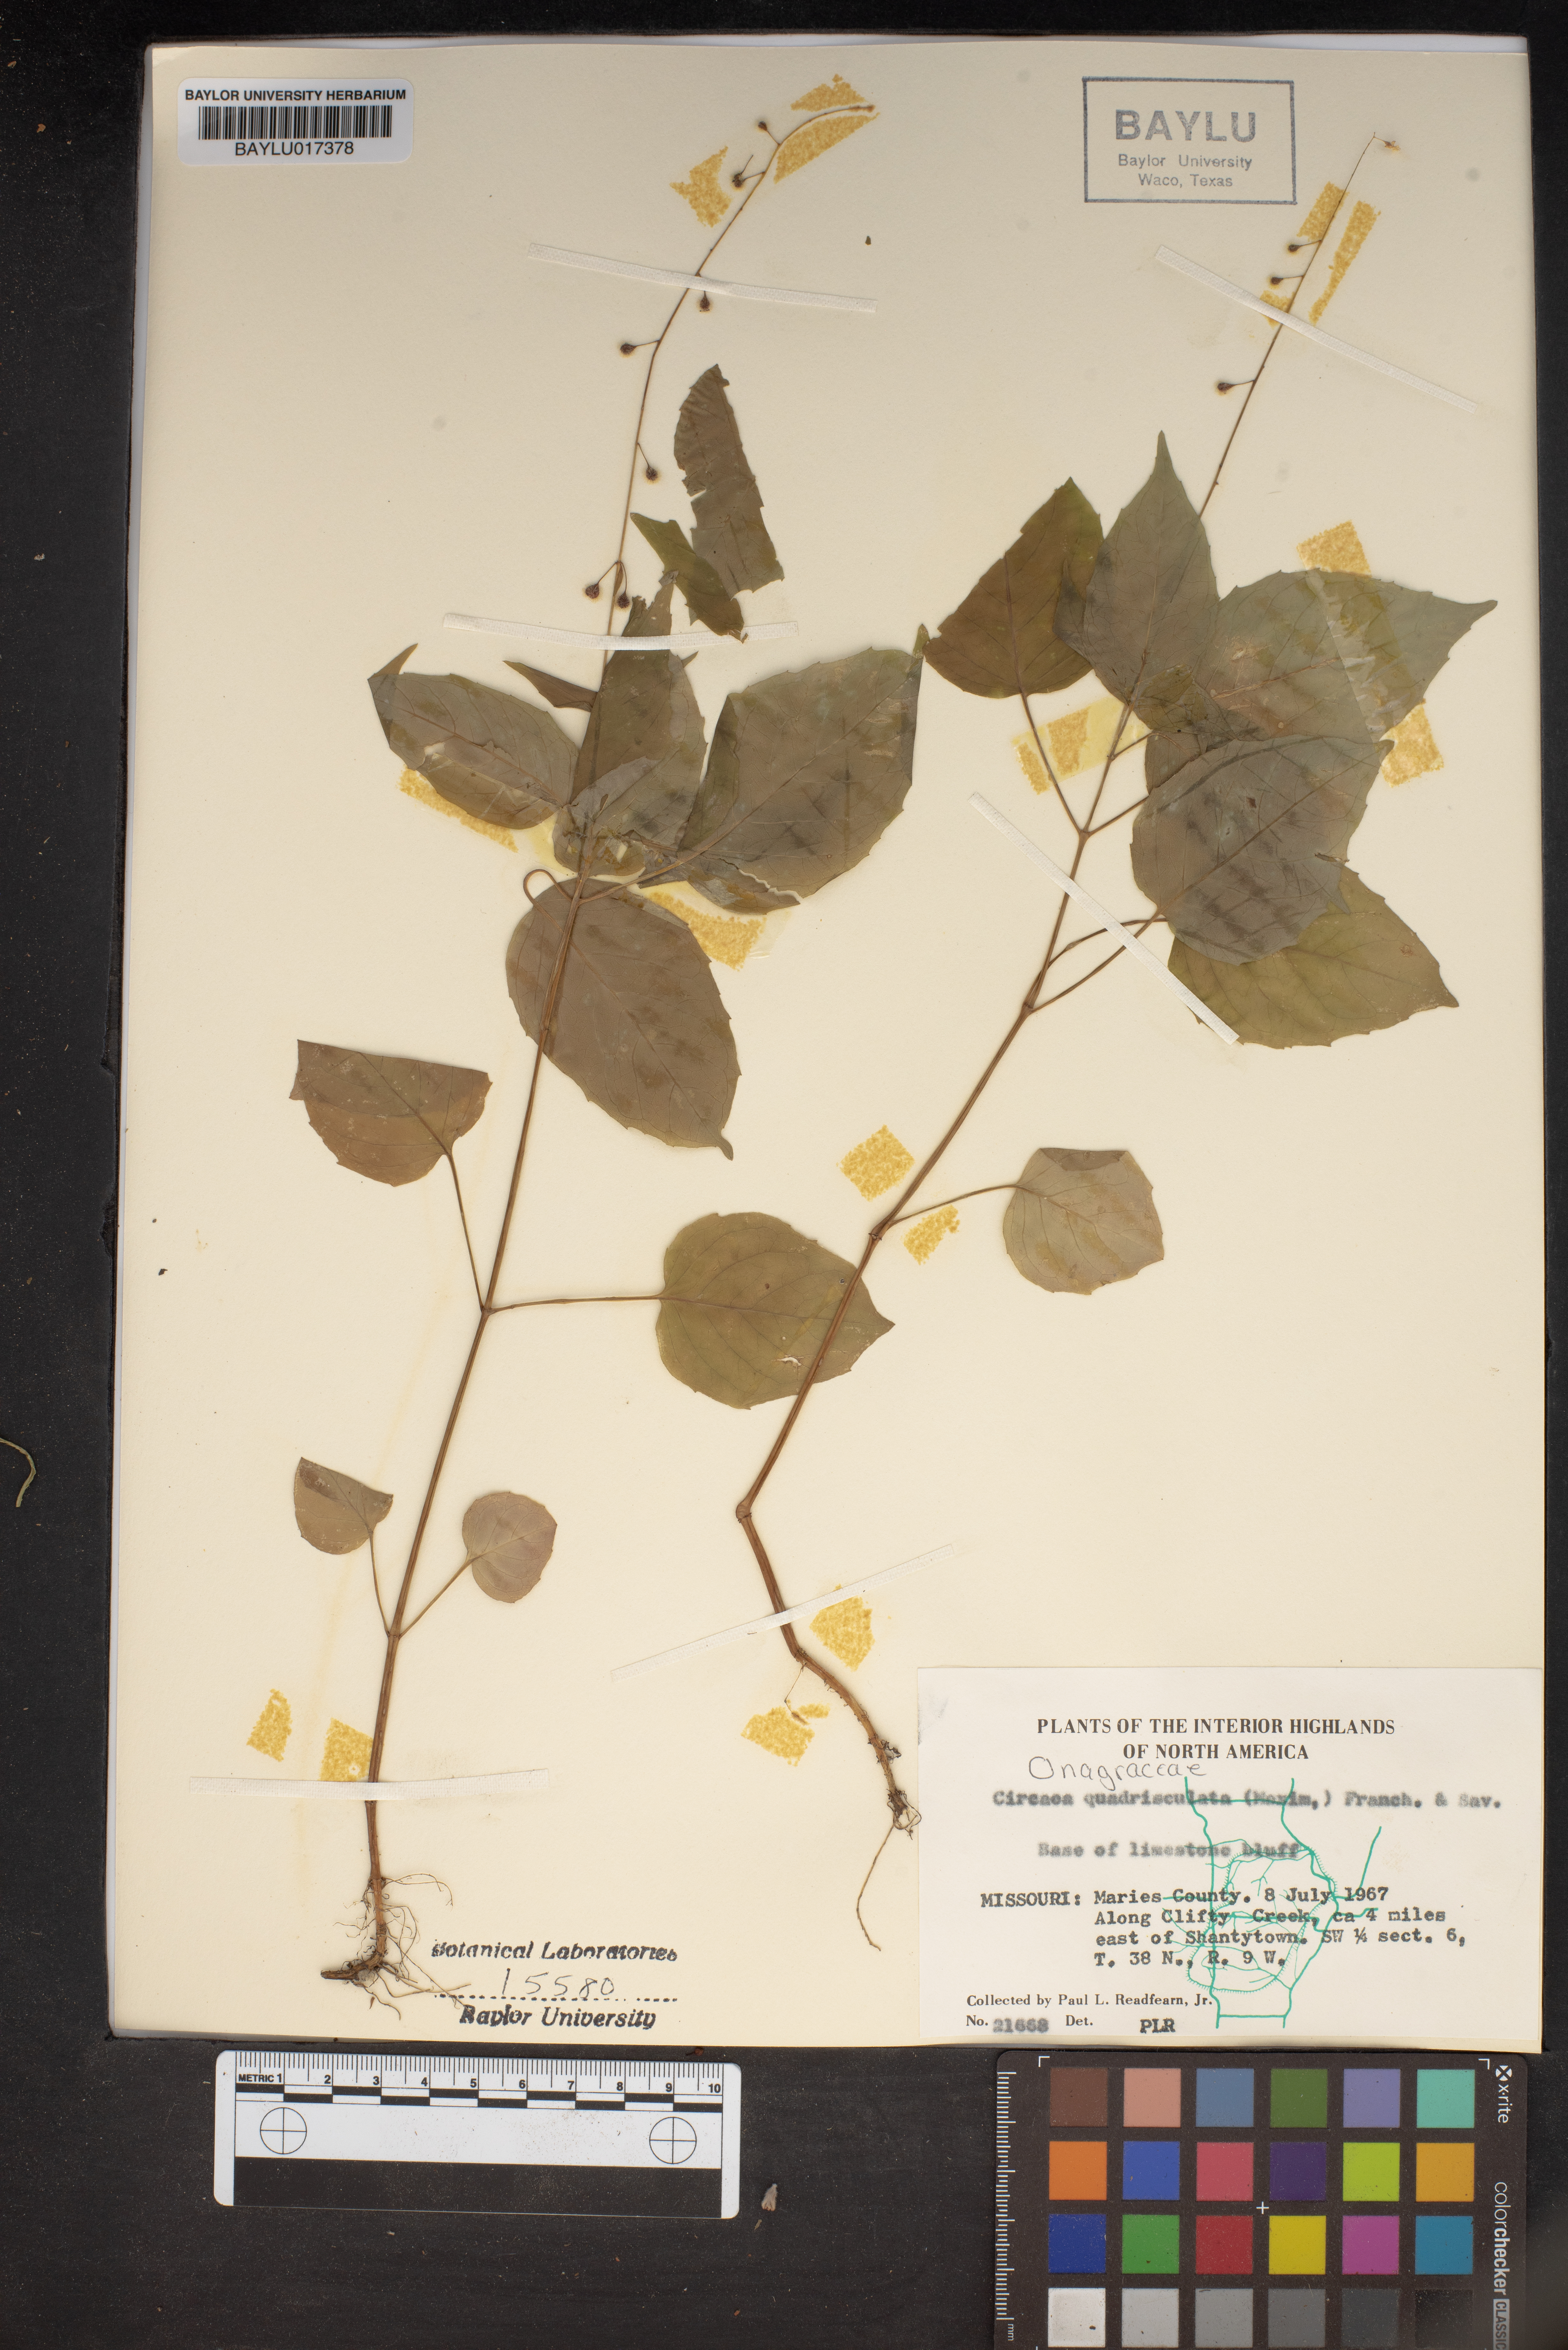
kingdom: Plantae
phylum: Tracheophyta
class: Magnoliopsida
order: Myrtales
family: Onagraceae
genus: Circaea
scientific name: Circaea canadensis
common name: Broad-leaved enchanter's nightshade
